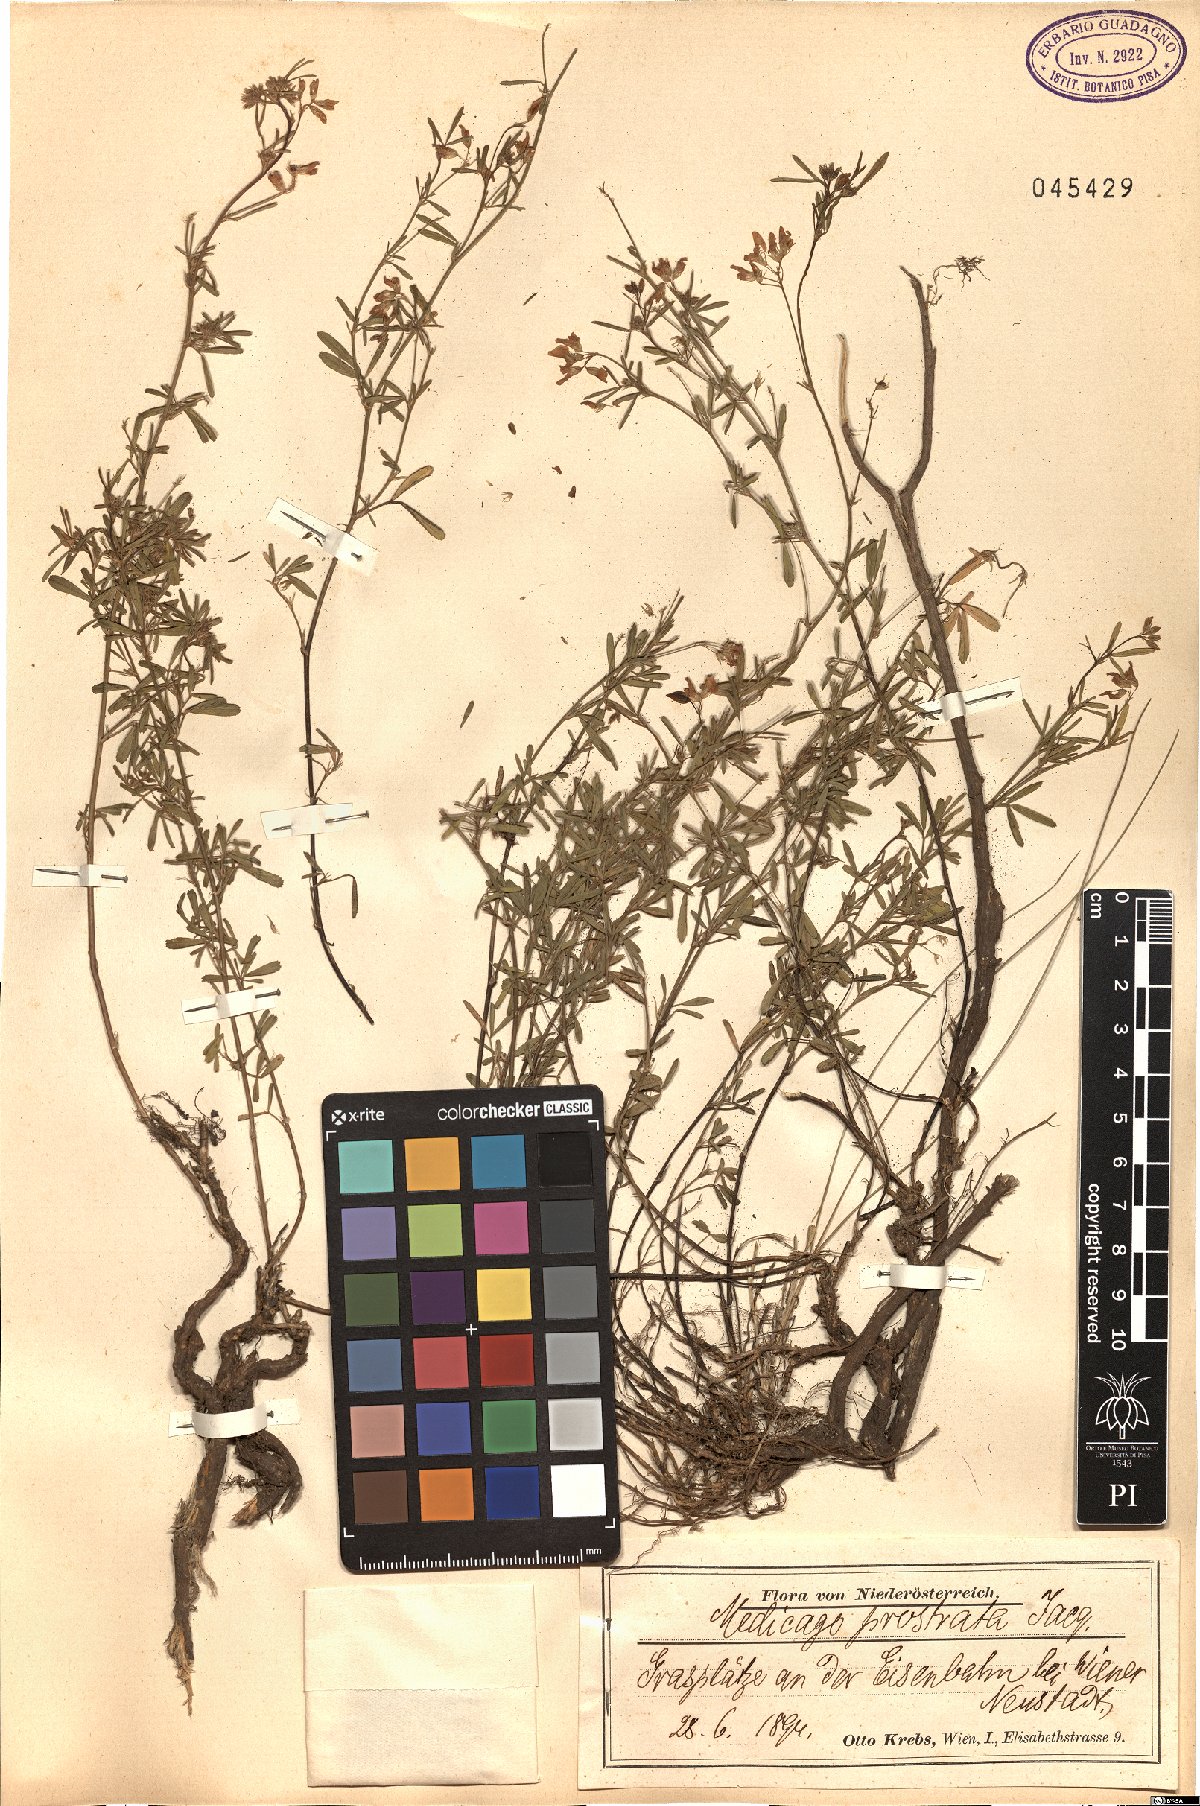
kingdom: Plantae
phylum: Tracheophyta
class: Magnoliopsida
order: Fabales
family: Fabaceae
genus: Medicago
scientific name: Medicago prostrata
